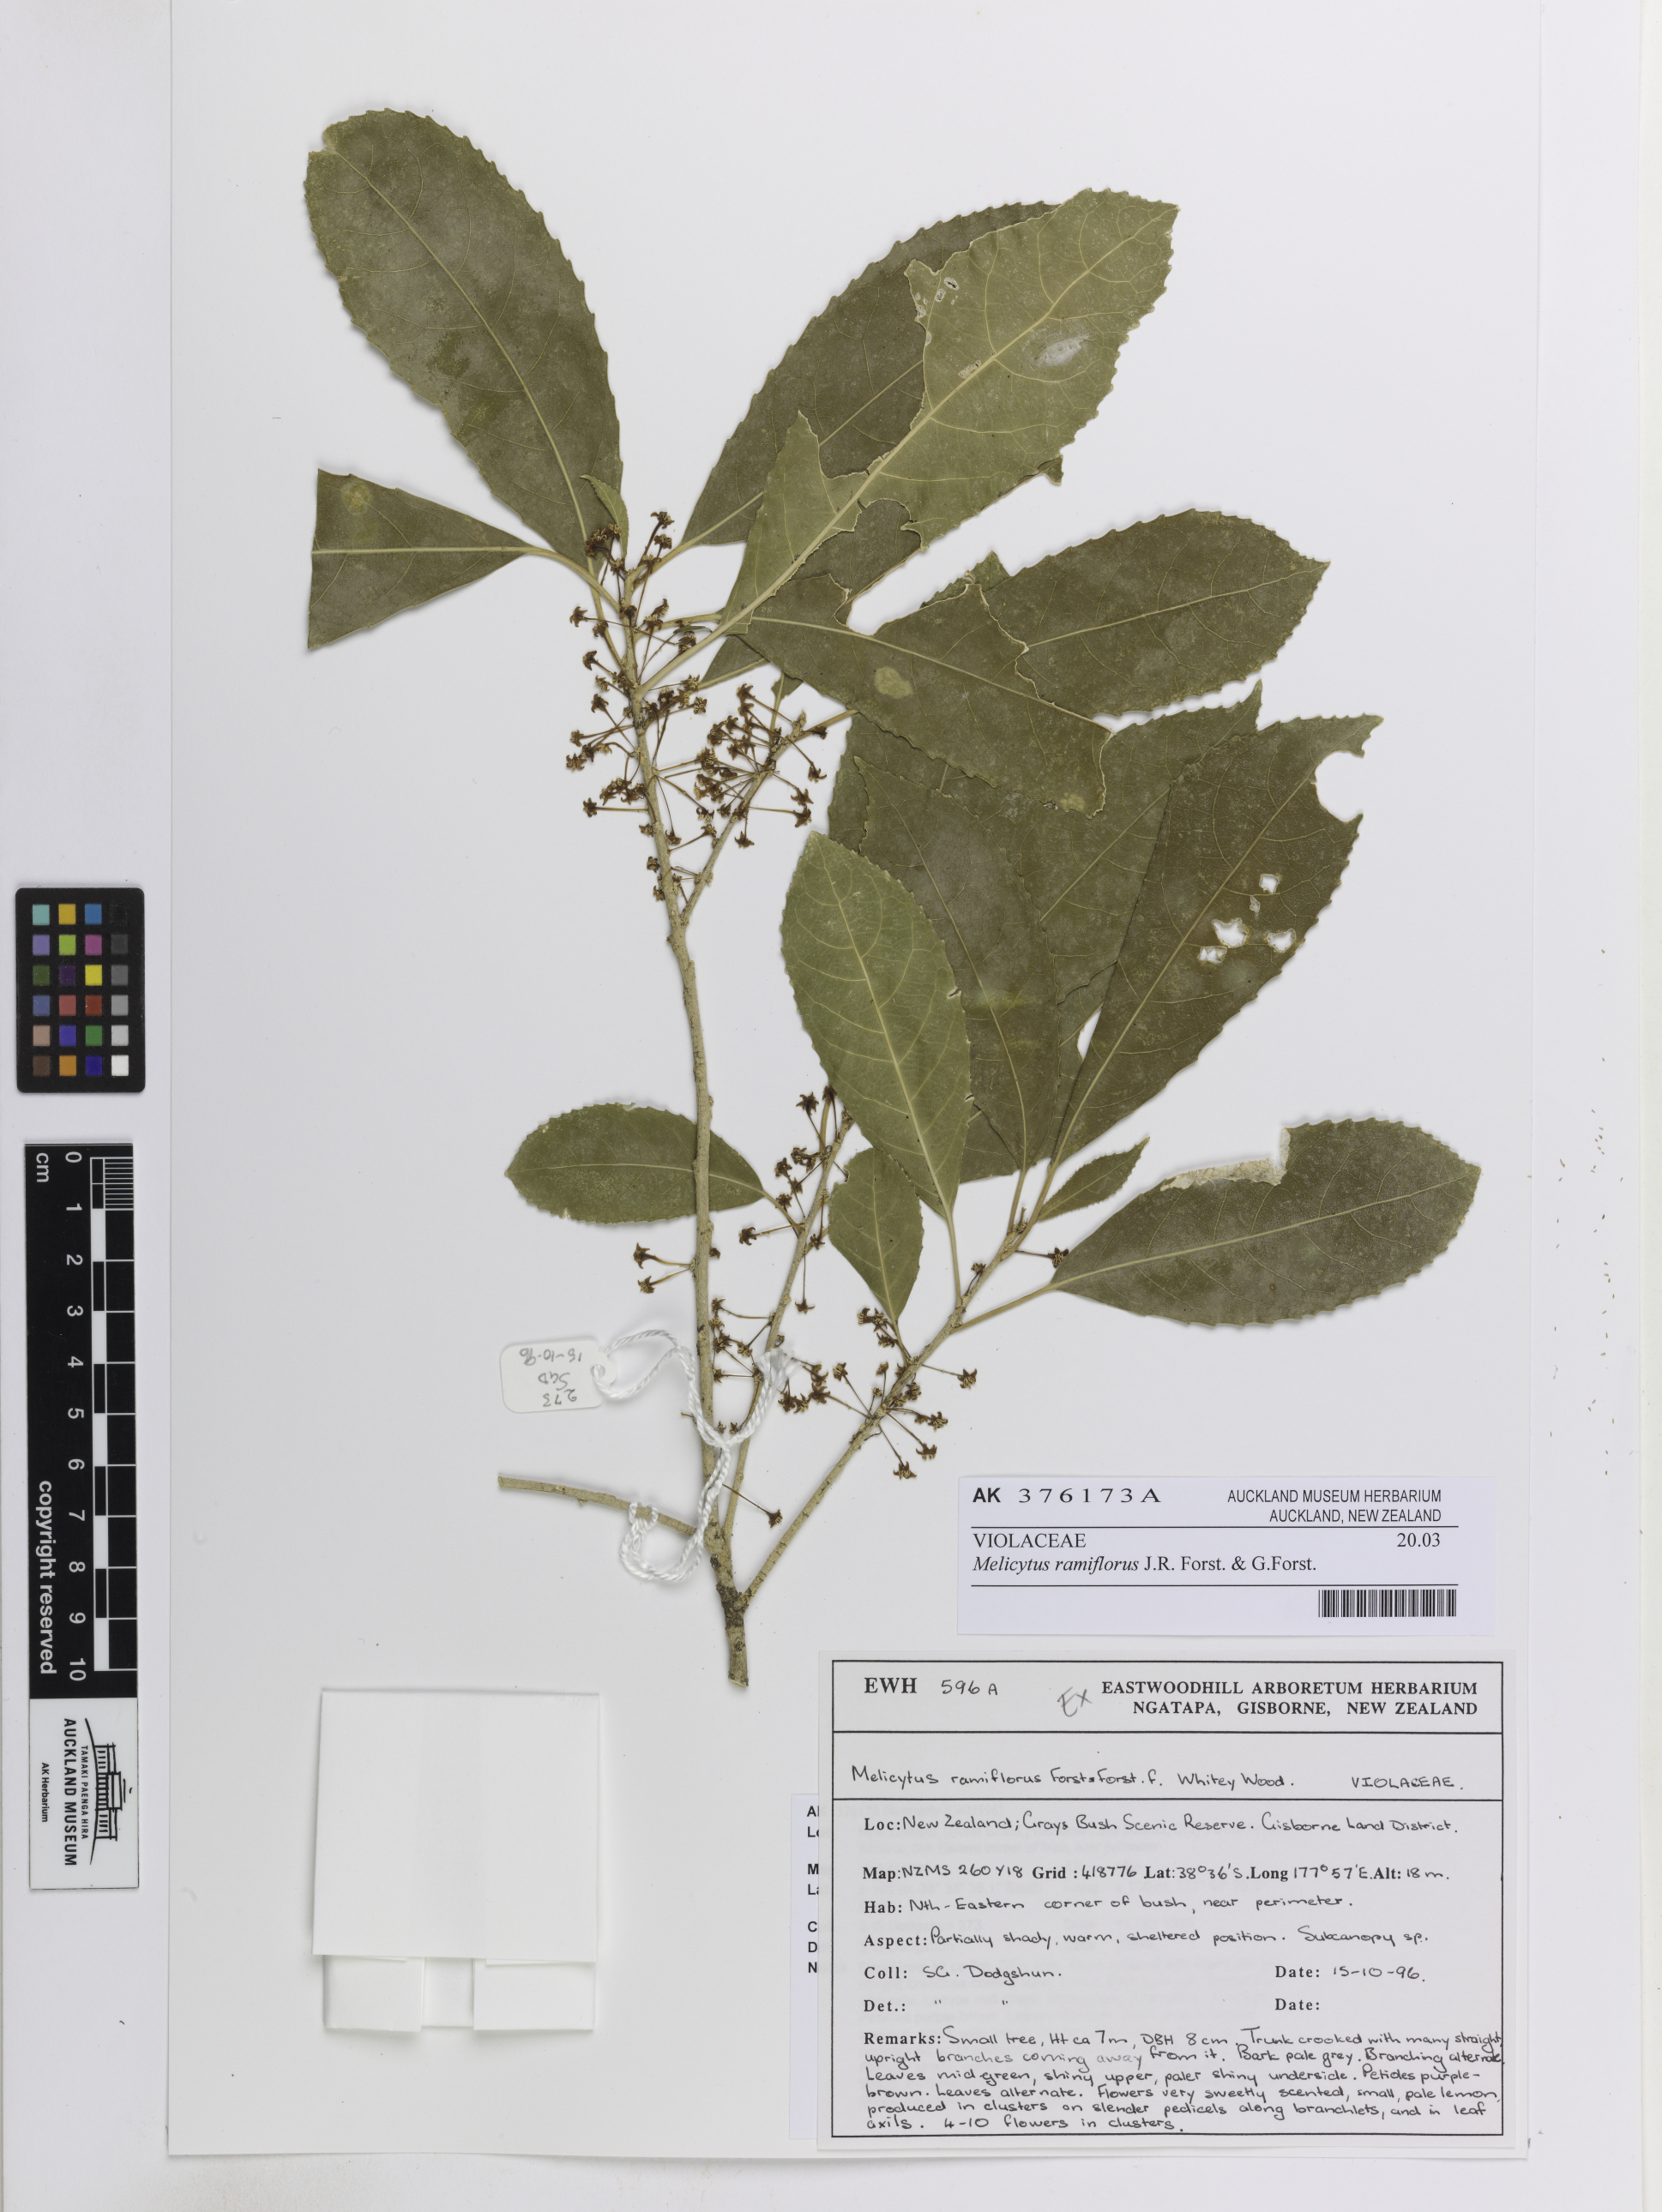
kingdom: Plantae
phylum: Tracheophyta
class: Magnoliopsida
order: Malpighiales
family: Violaceae
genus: Melicytus
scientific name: Melicytus ramiflorus
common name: Mahoe
